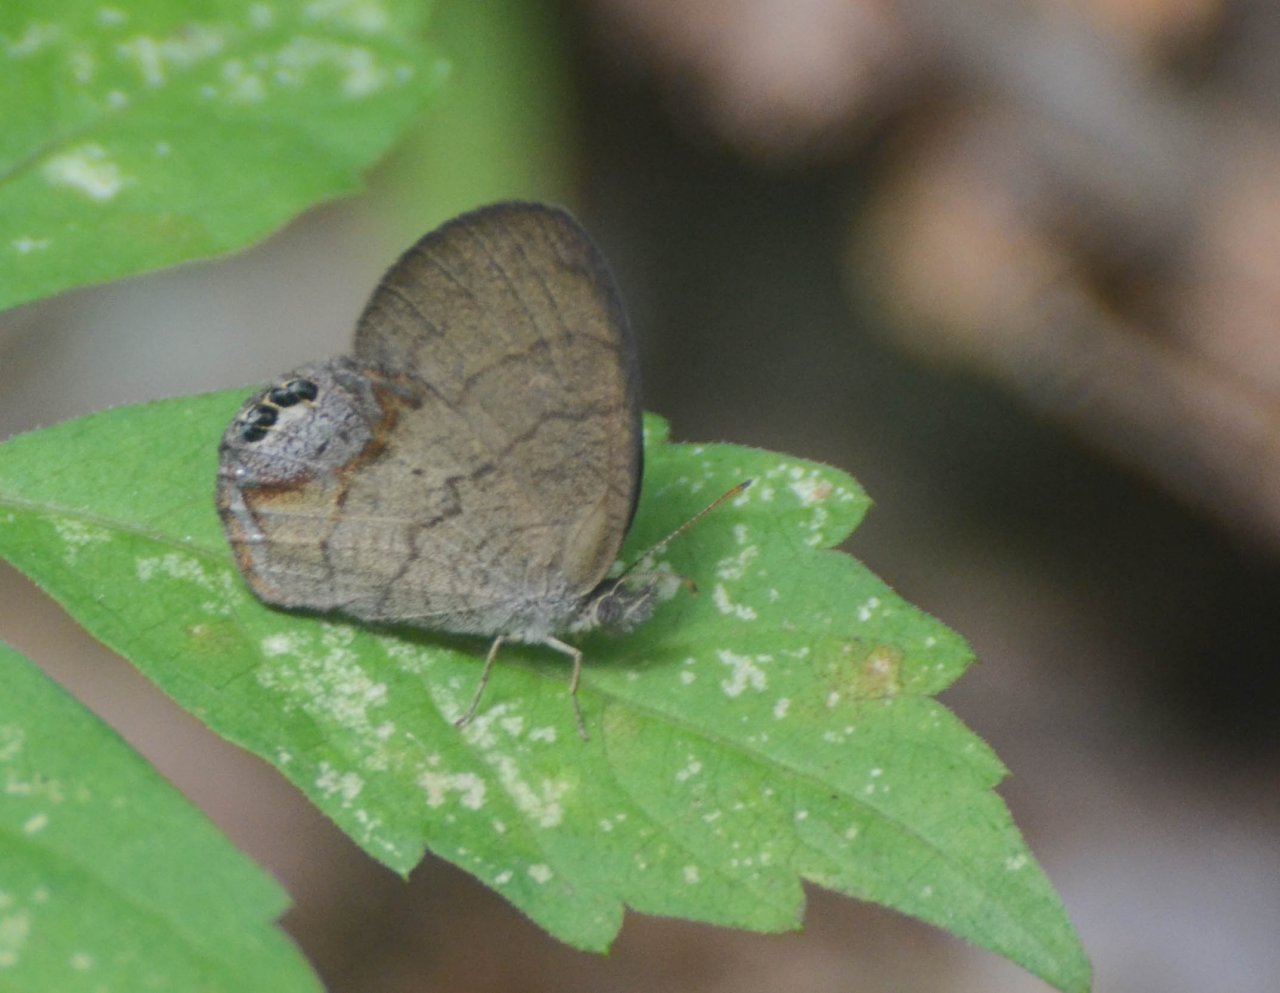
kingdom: Animalia
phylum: Arthropoda
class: Insecta
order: Lepidoptera
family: Nymphalidae
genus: Euptychia
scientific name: Euptychia cornelius
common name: Gemmed Satyr
